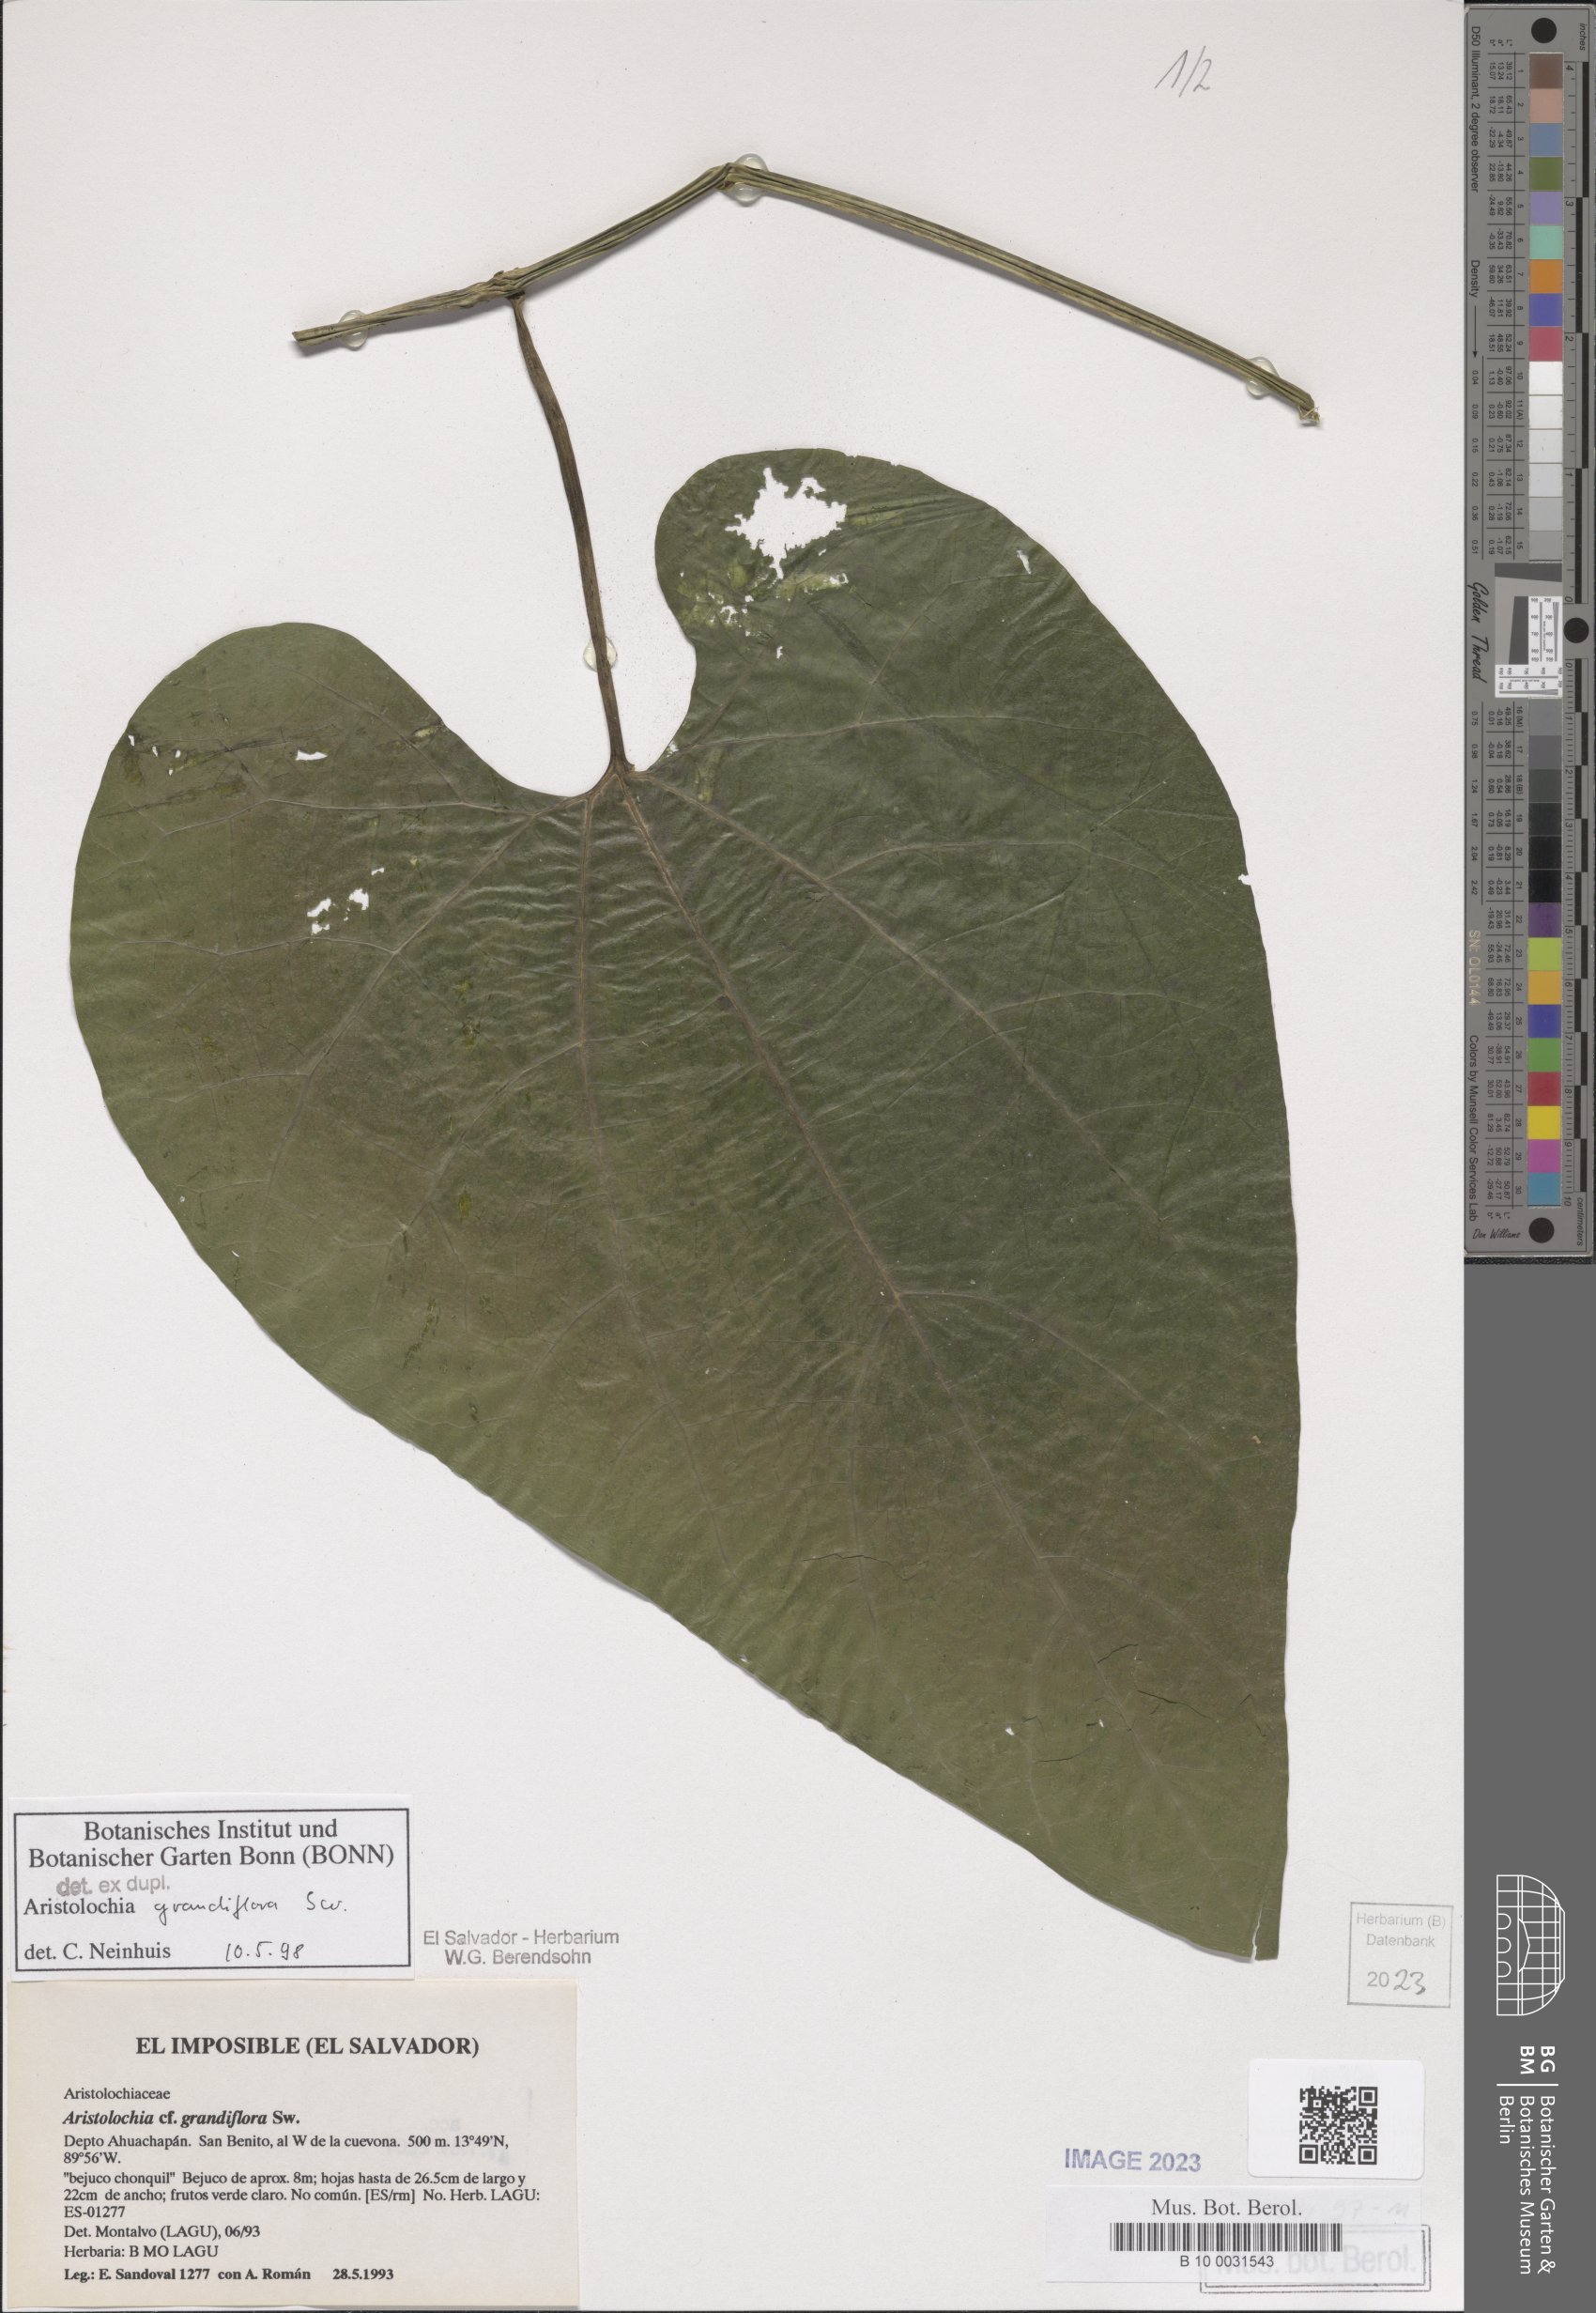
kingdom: Plantae
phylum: Tracheophyta
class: Magnoliopsida
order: Piperales
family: Aristolochiaceae
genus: Aristolochia
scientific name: Aristolochia grandiflora
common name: Pelicanflower
